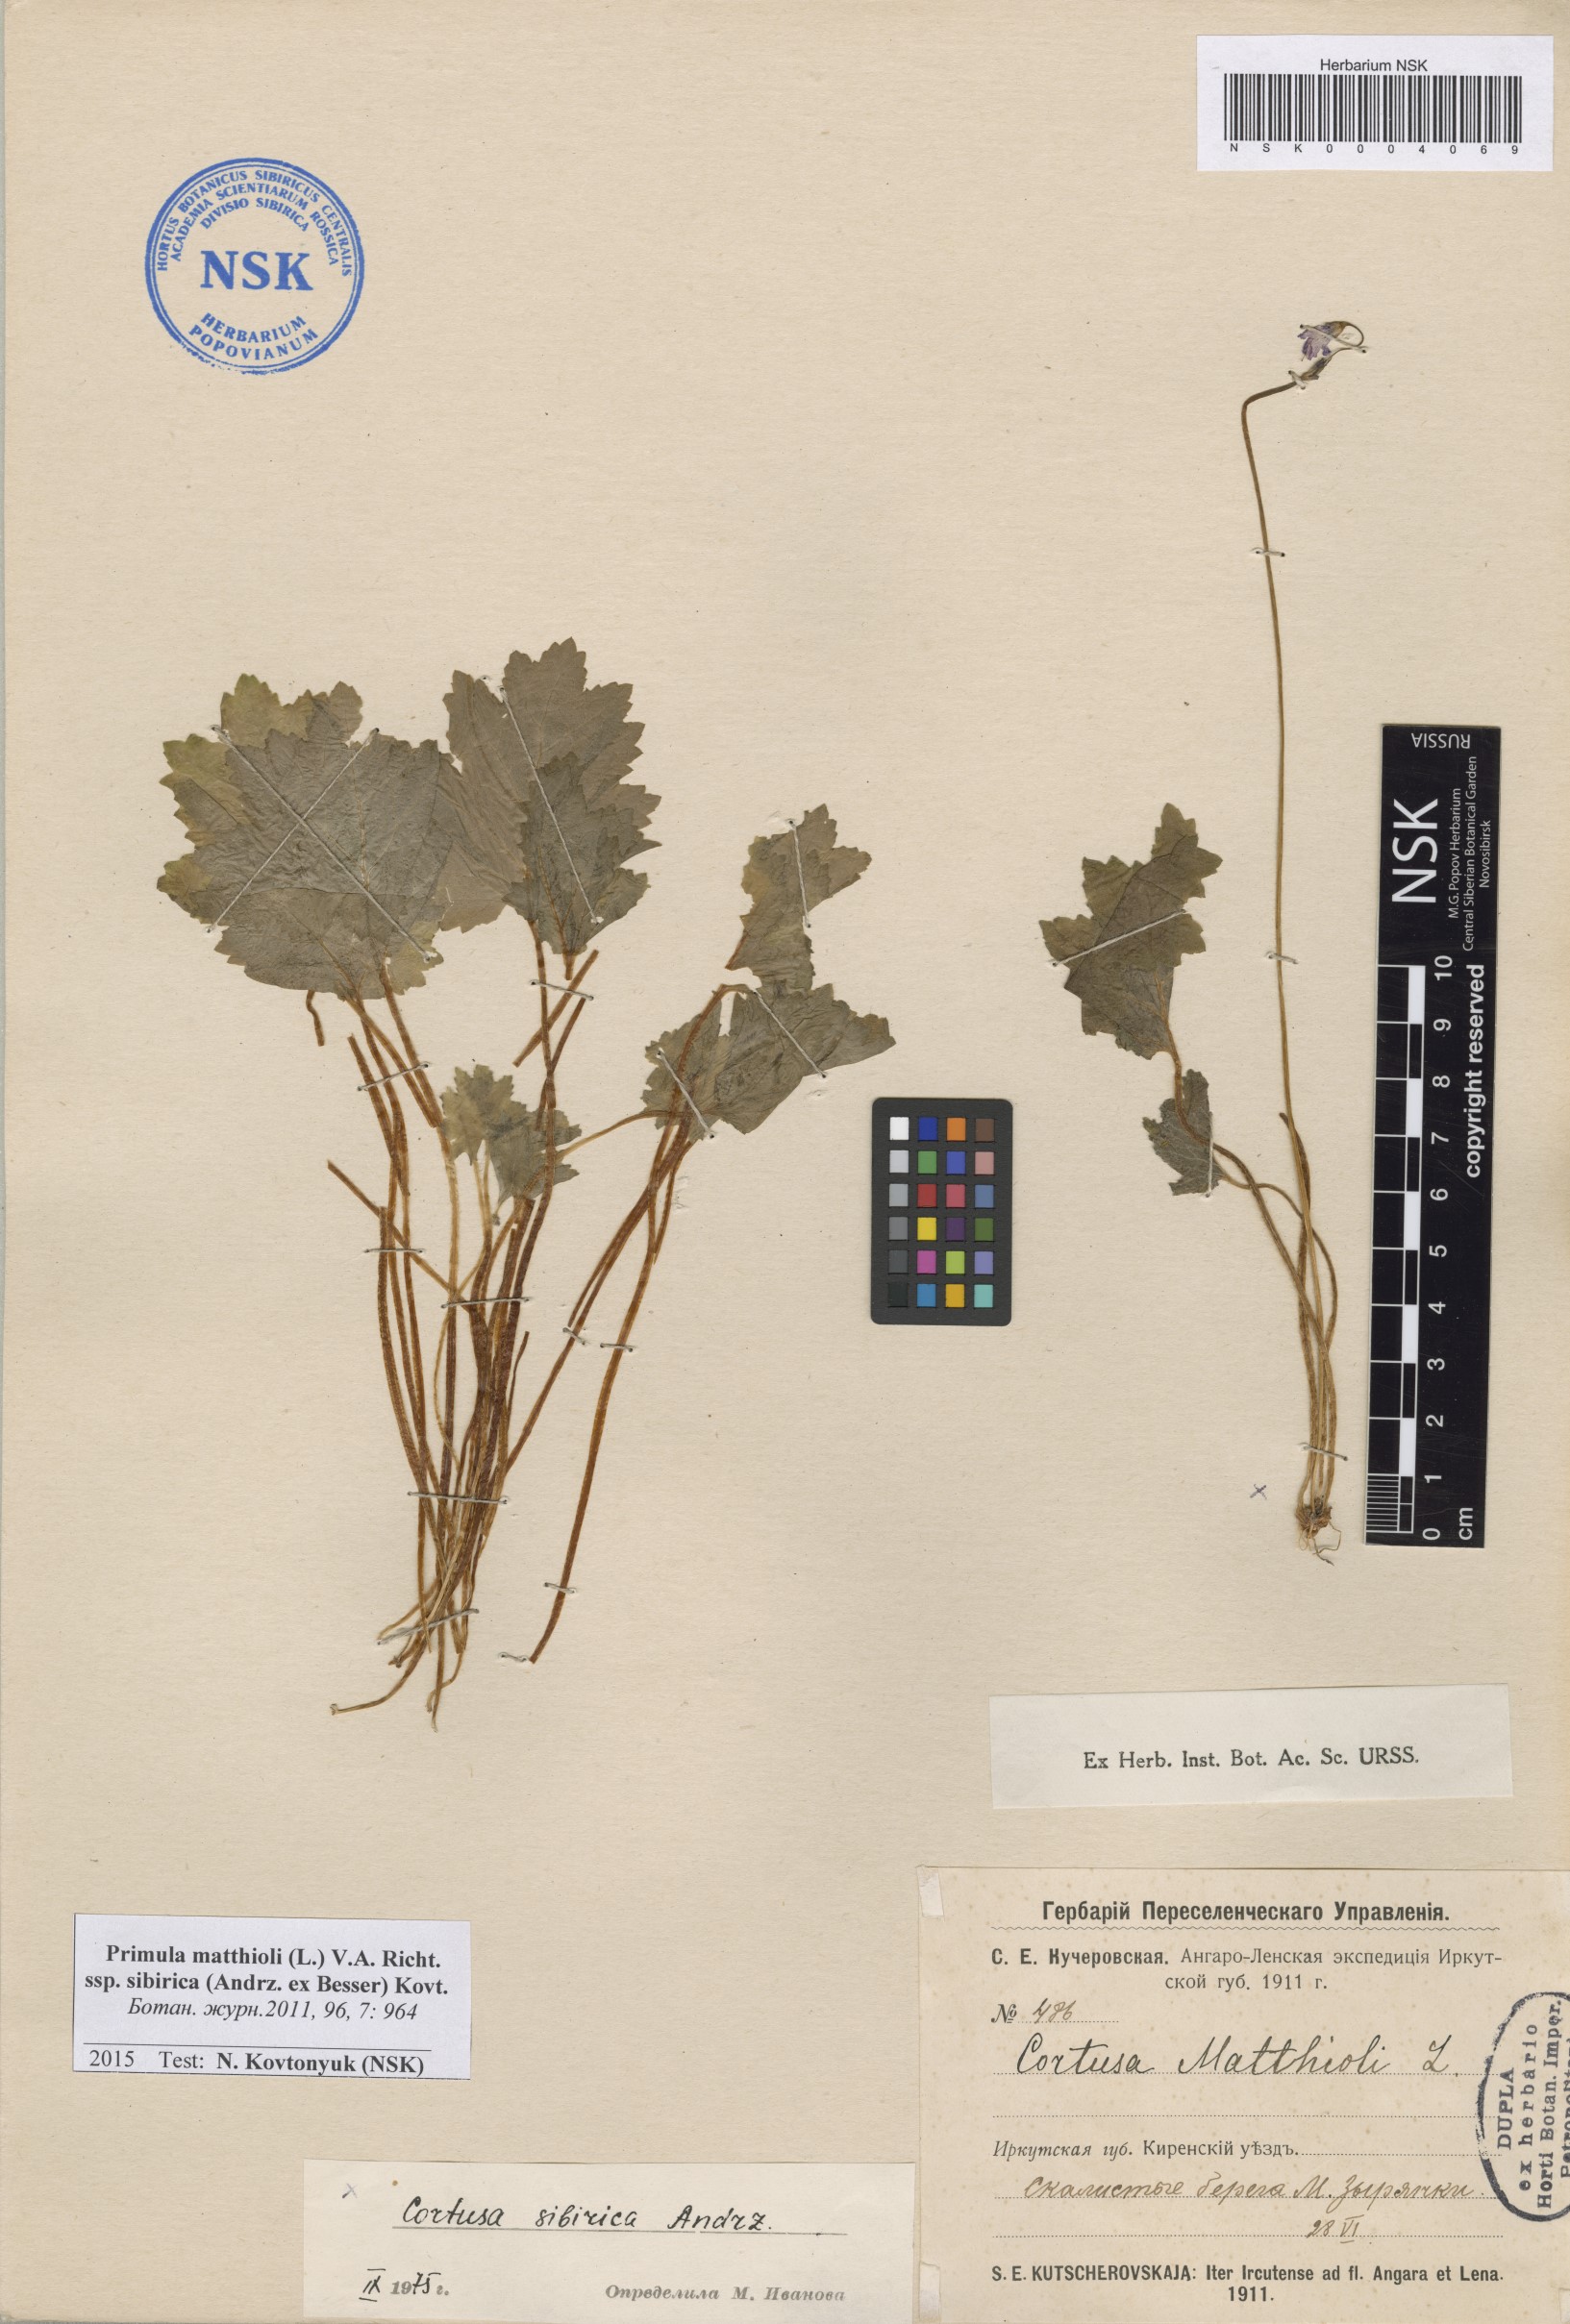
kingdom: Plantae
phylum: Tracheophyta
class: Magnoliopsida
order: Ericales
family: Primulaceae
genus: Primula
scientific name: Primula matthioli
